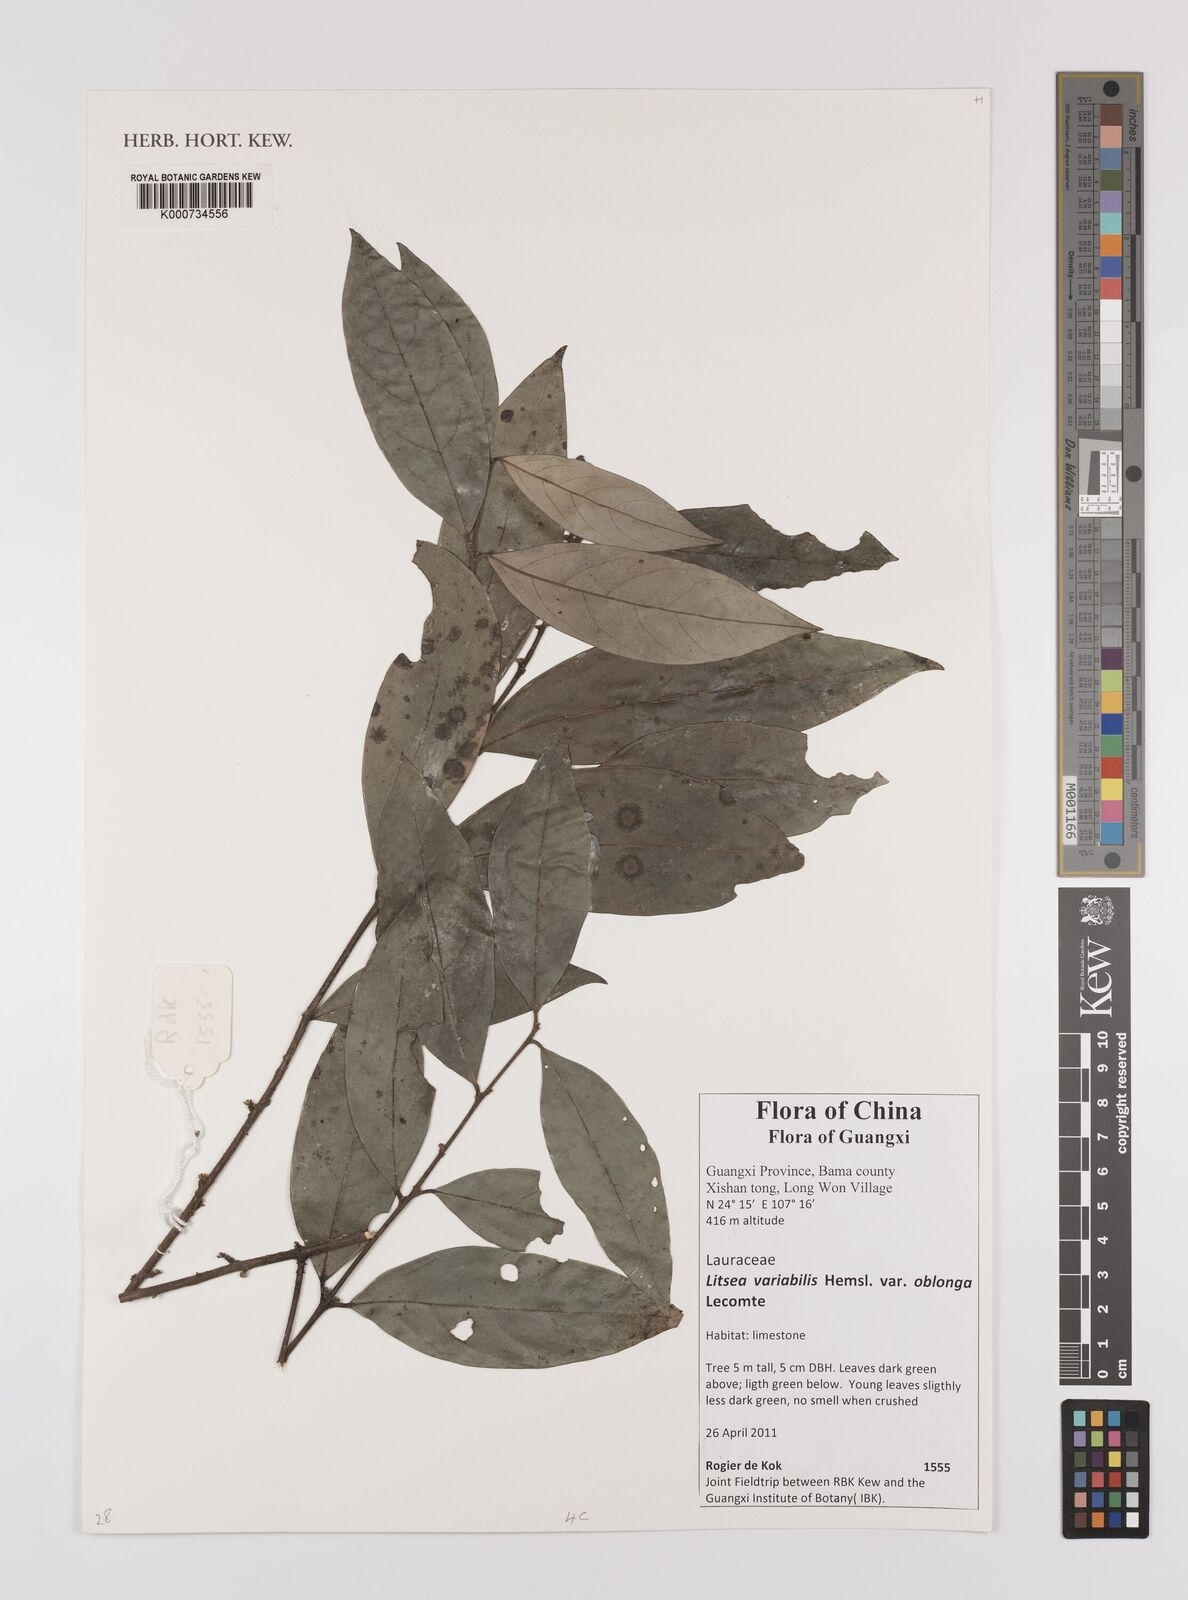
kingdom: Plantae
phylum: Tracheophyta
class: Magnoliopsida
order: Laurales
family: Lauraceae
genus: Litsea
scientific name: Litsea variabilis
